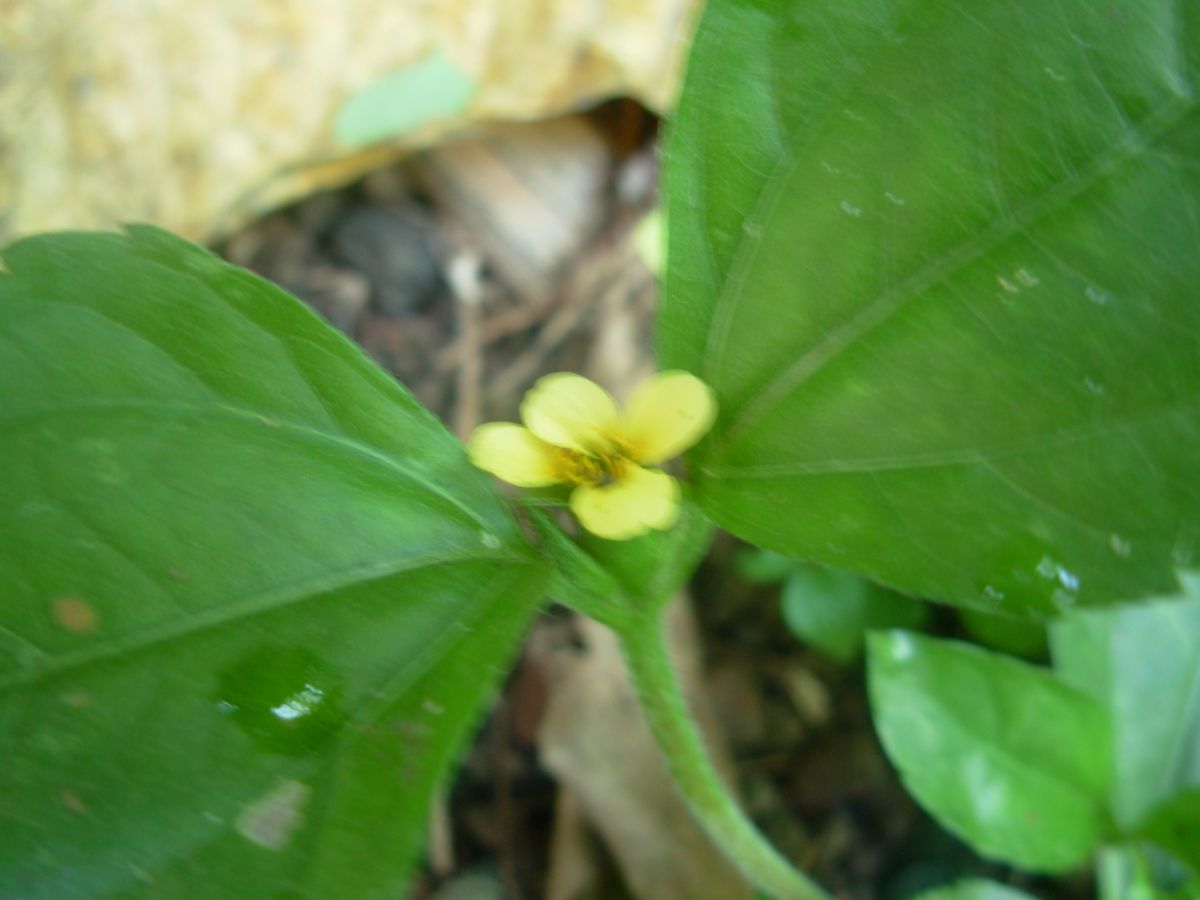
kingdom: Plantae
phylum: Tracheophyta
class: Magnoliopsida
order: Asterales
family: Asteraceae
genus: Synedrella
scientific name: Synedrella nodiflora
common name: Nodeweed
